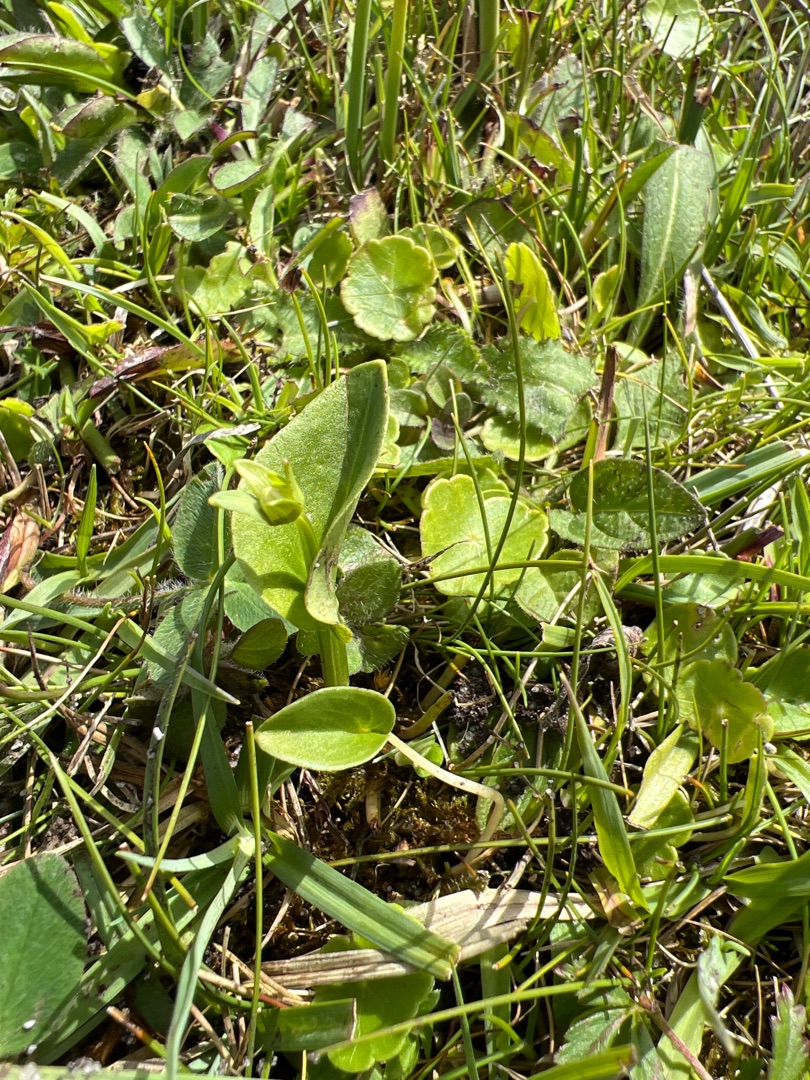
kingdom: Plantae
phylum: Tracheophyta
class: Magnoliopsida
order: Celastrales
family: Parnassiaceae
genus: Parnassia
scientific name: Parnassia palustris
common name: Leverurt
